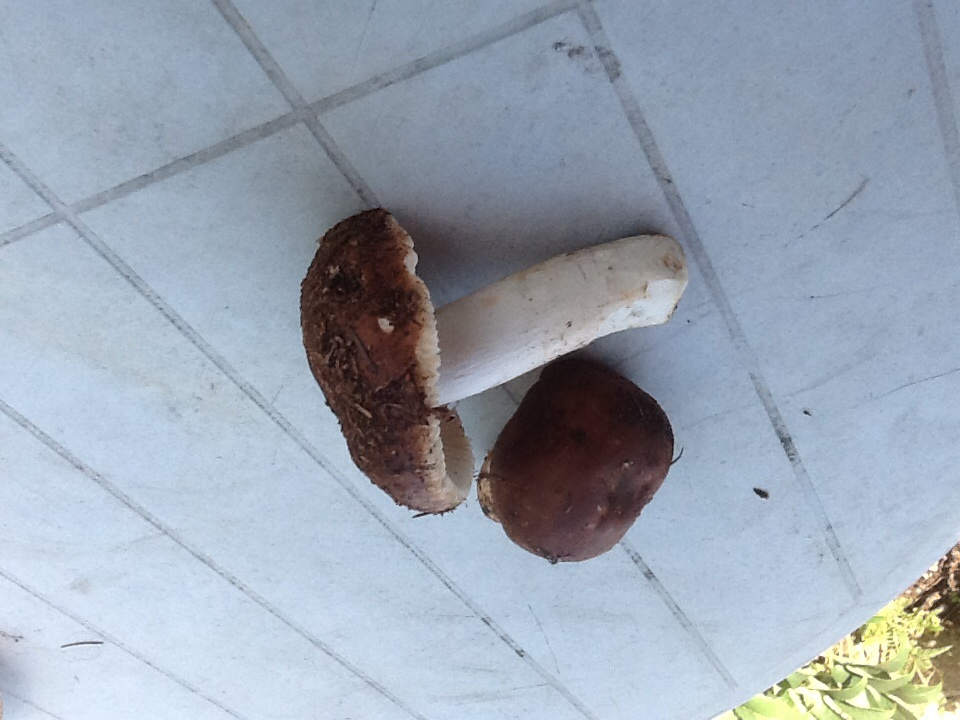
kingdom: Fungi
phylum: Basidiomycota
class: Agaricomycetes
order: Russulales
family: Russulaceae
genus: Russula
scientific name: Russula mustelina
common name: brun skørhat
